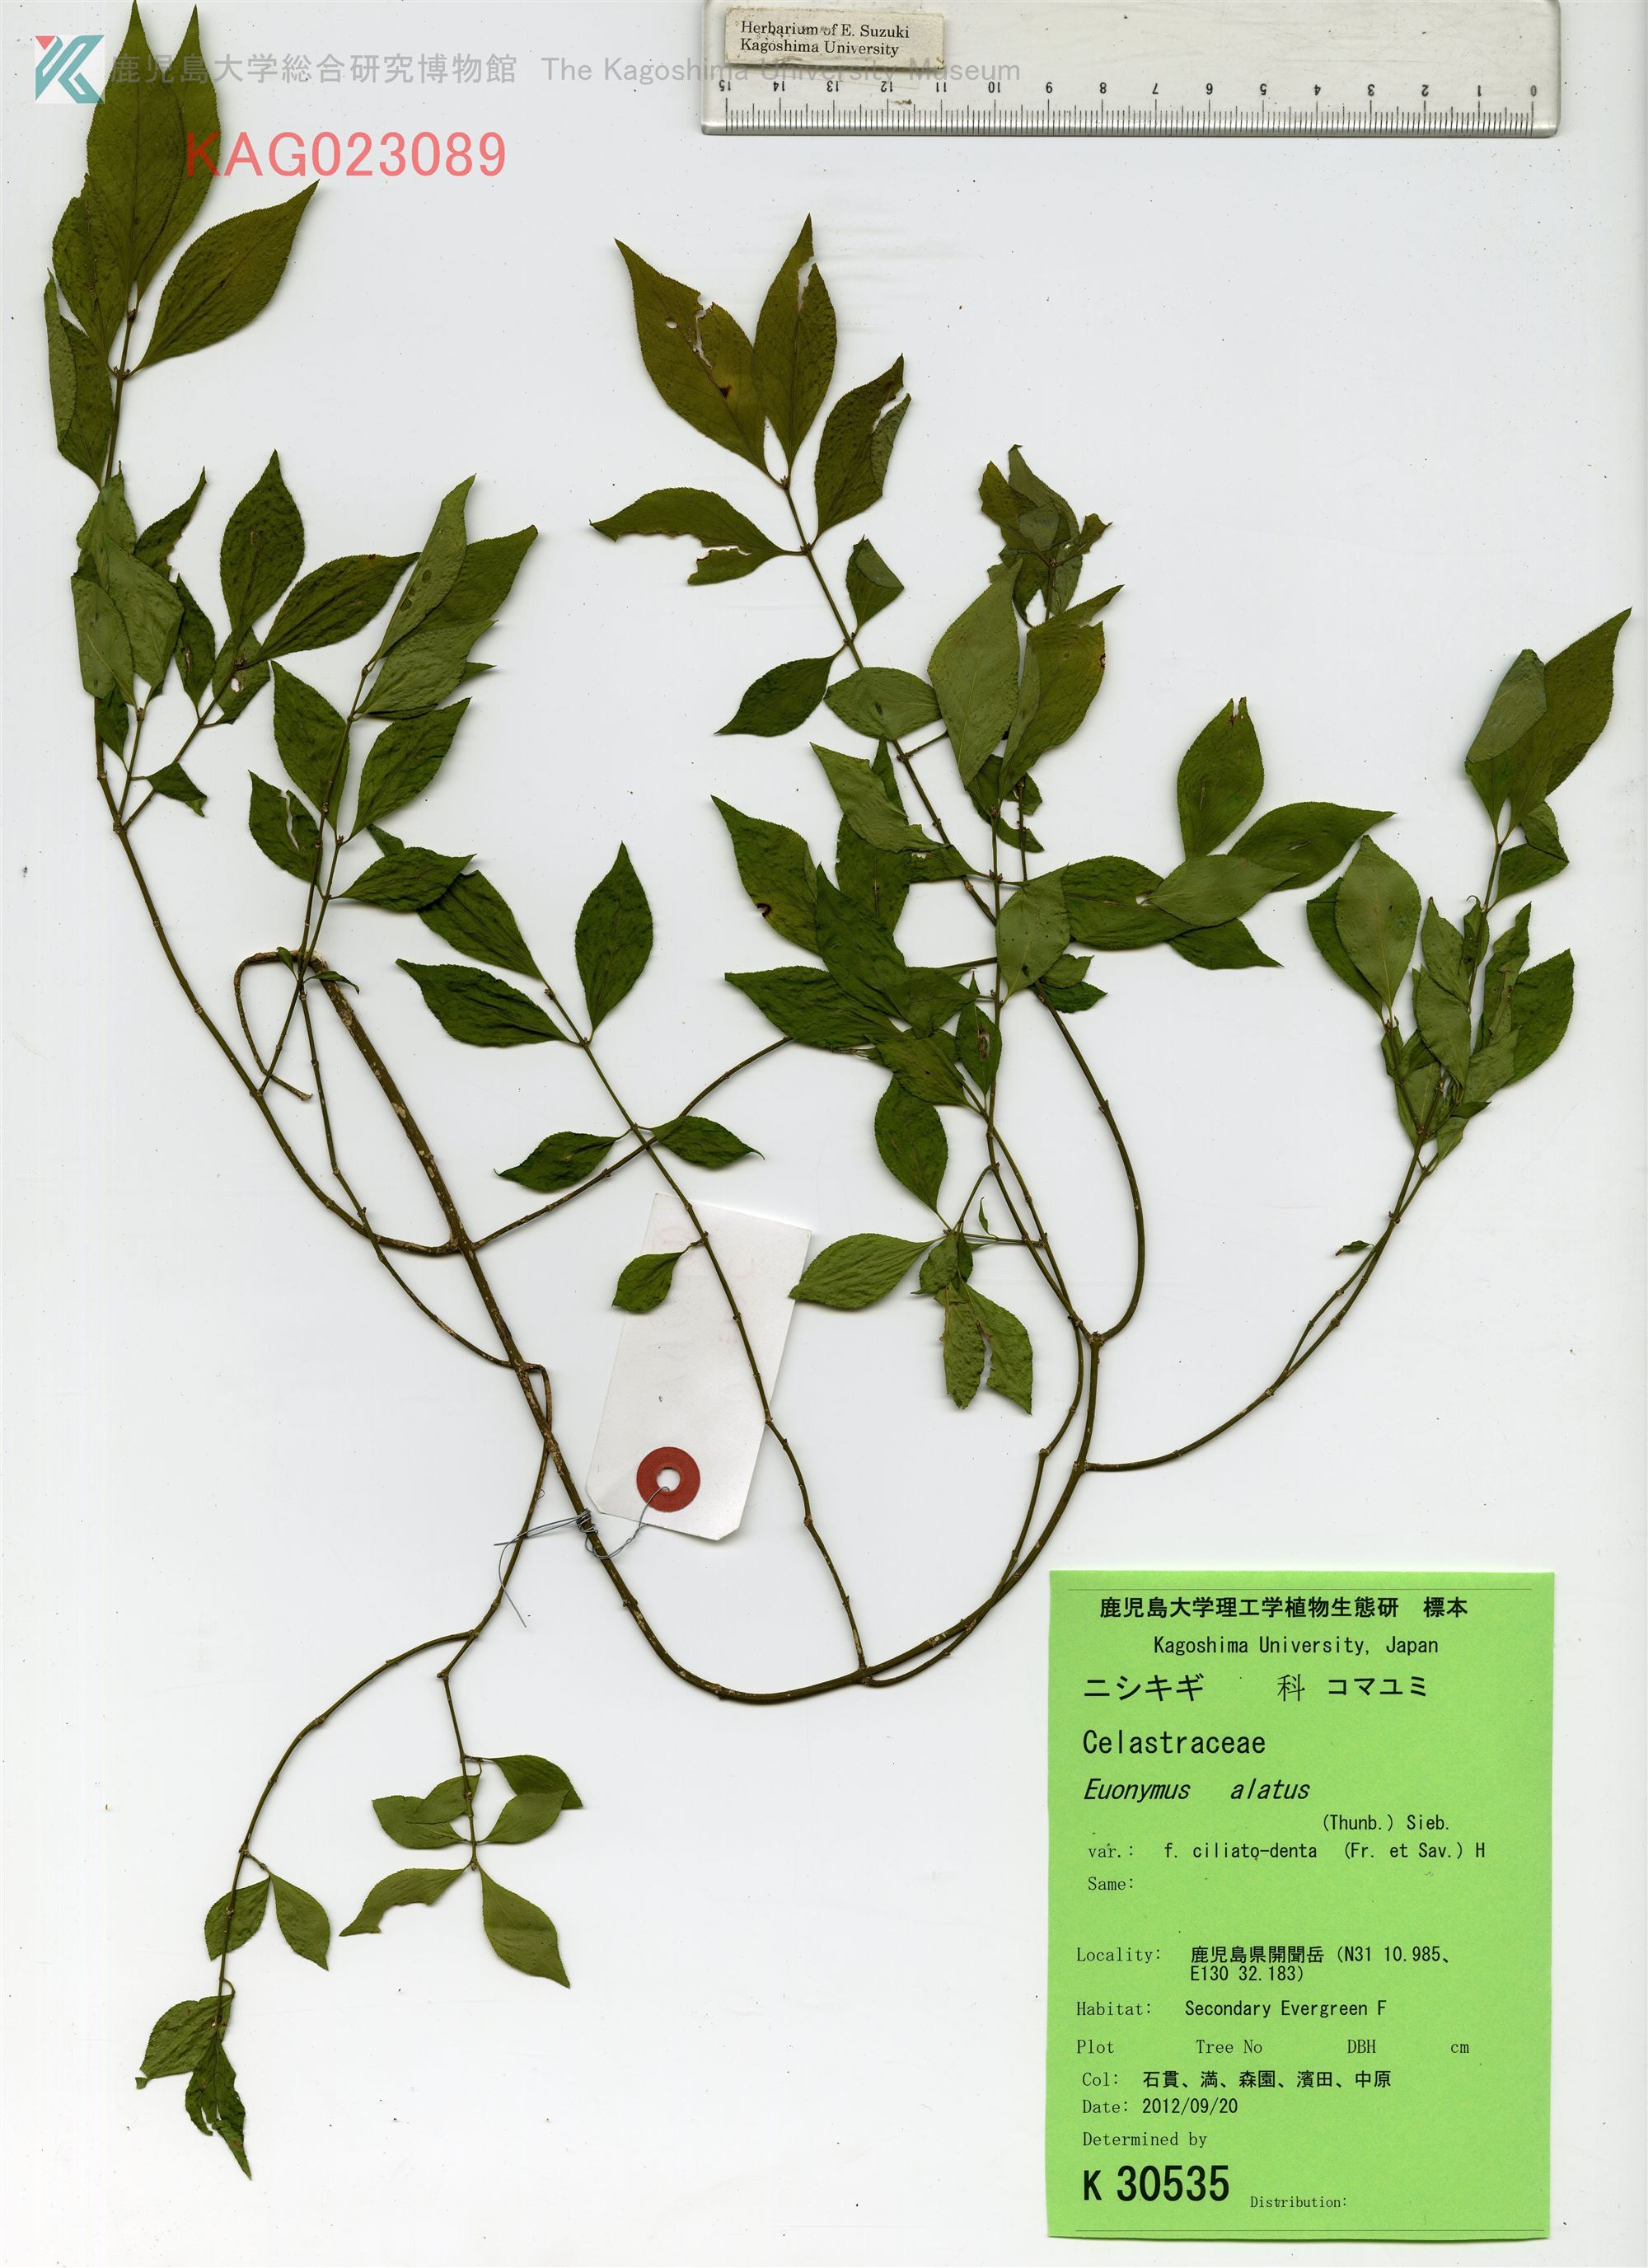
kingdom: Plantae
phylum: Tracheophyta
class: Magnoliopsida
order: Celastrales
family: Celastraceae
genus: Euonymus
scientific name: Euonymus alatus
